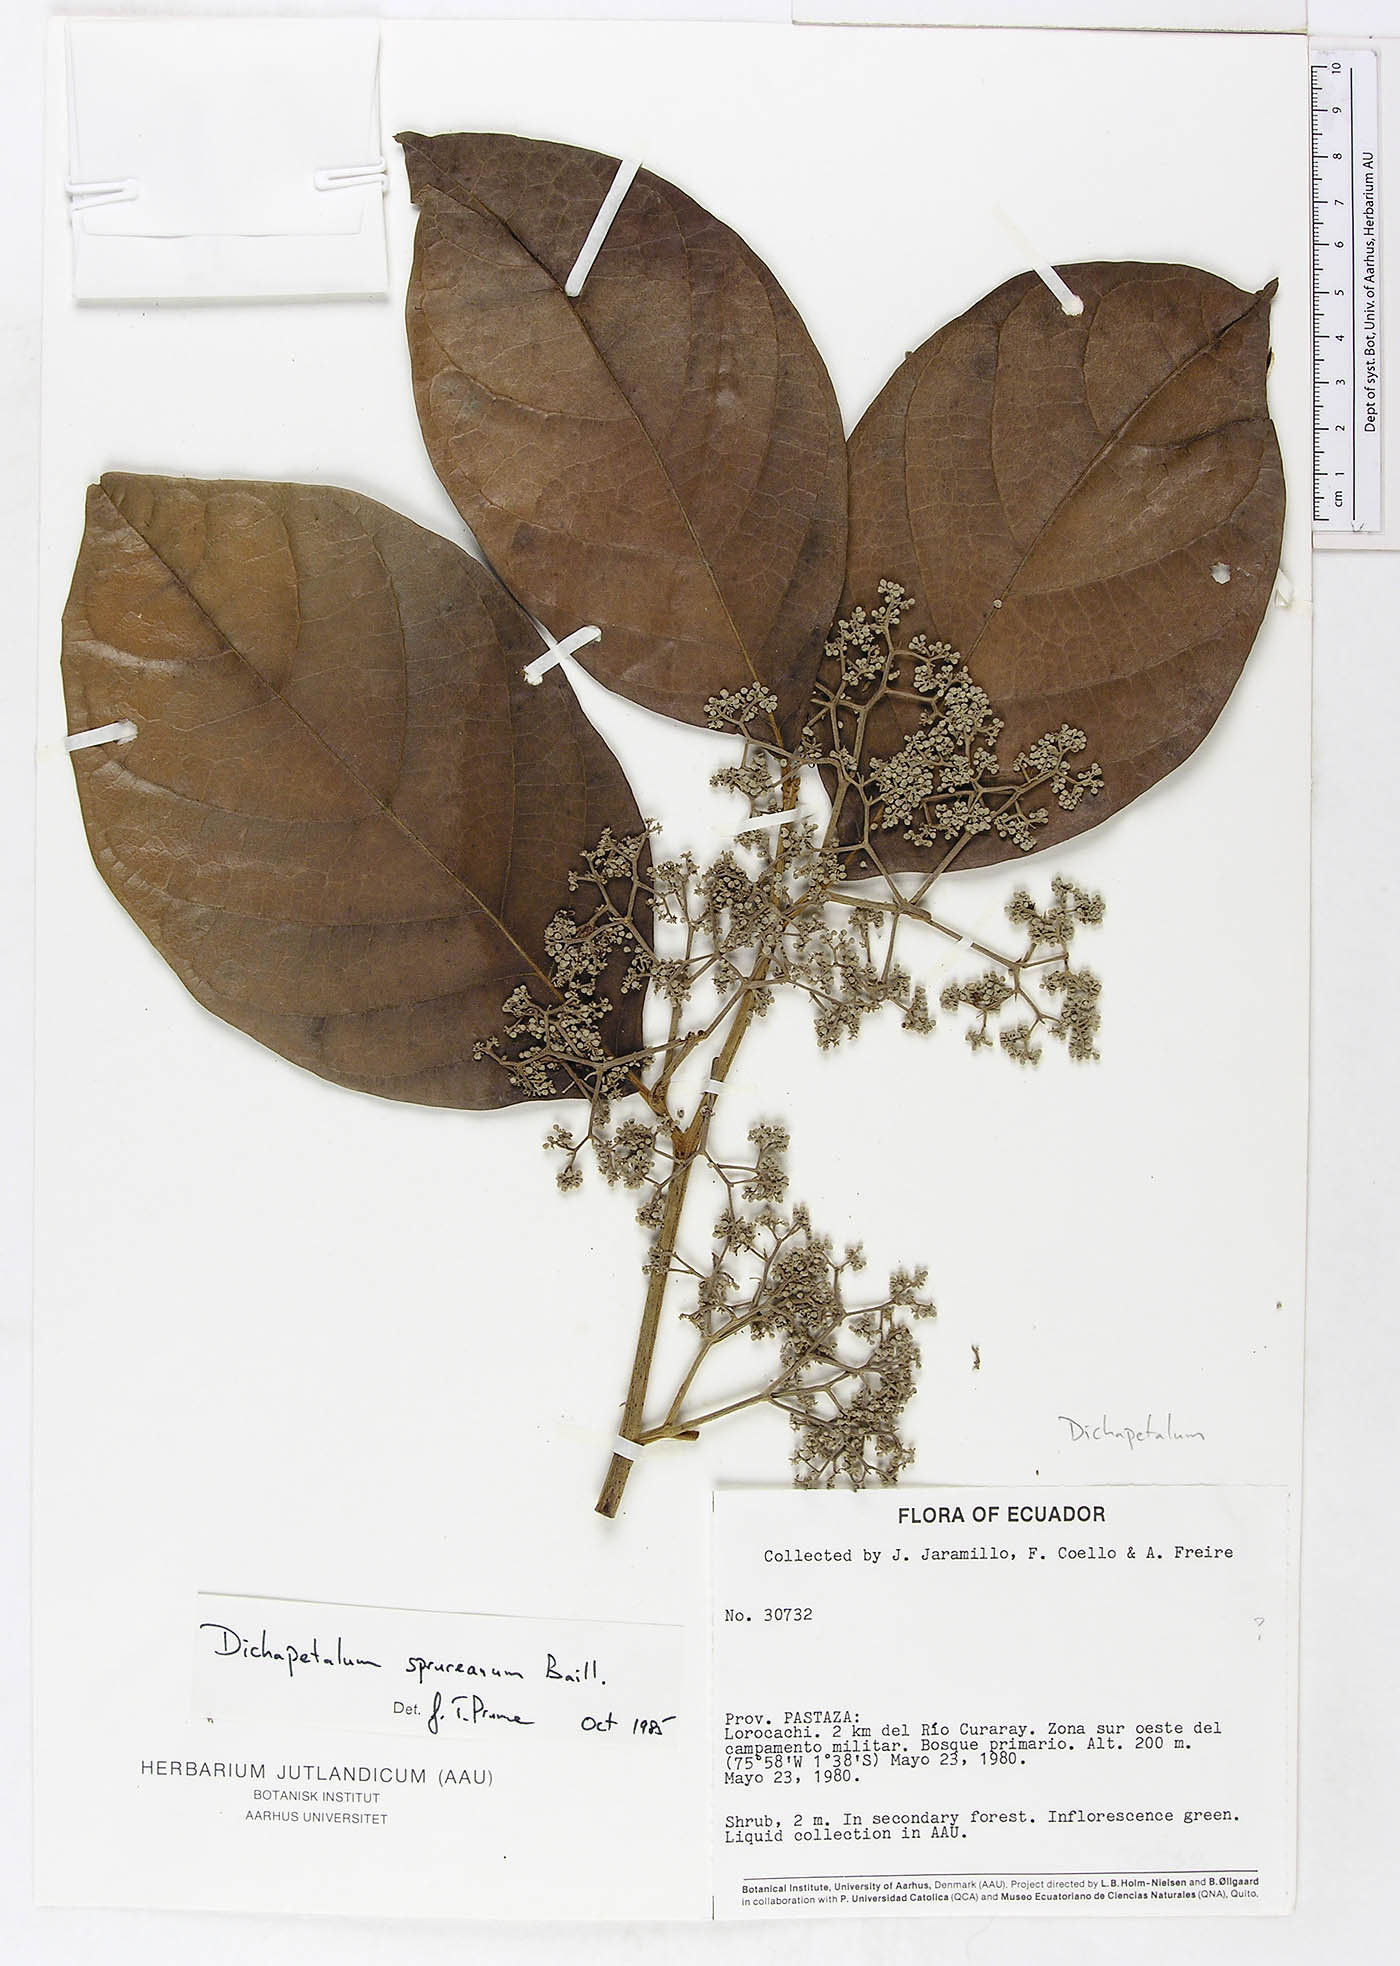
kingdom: Plantae
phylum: Tracheophyta
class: Magnoliopsida
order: Malpighiales
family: Dichapetalaceae
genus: Dichapetalum
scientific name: Dichapetalum spruceanum
